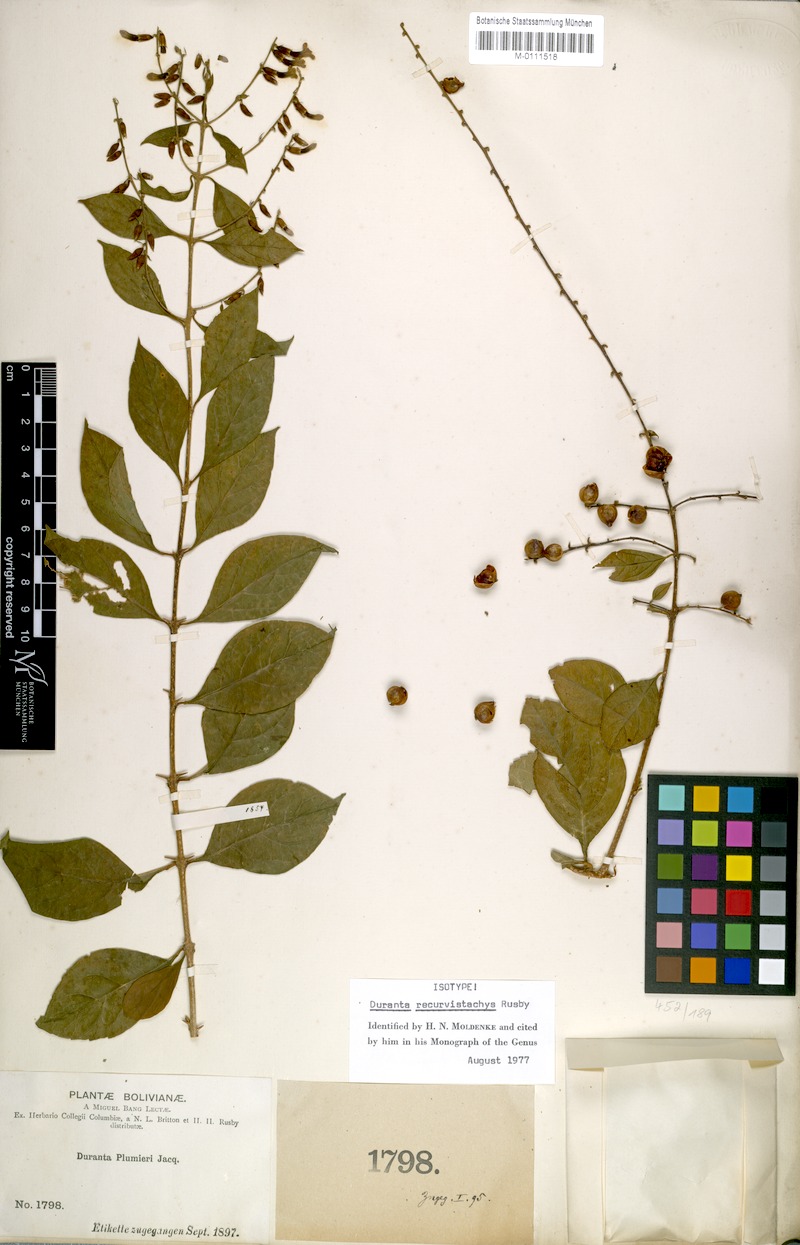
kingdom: Plantae
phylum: Tracheophyta
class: Magnoliopsida
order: Lamiales
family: Verbenaceae
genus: Duranta
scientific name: Duranta mutisii
